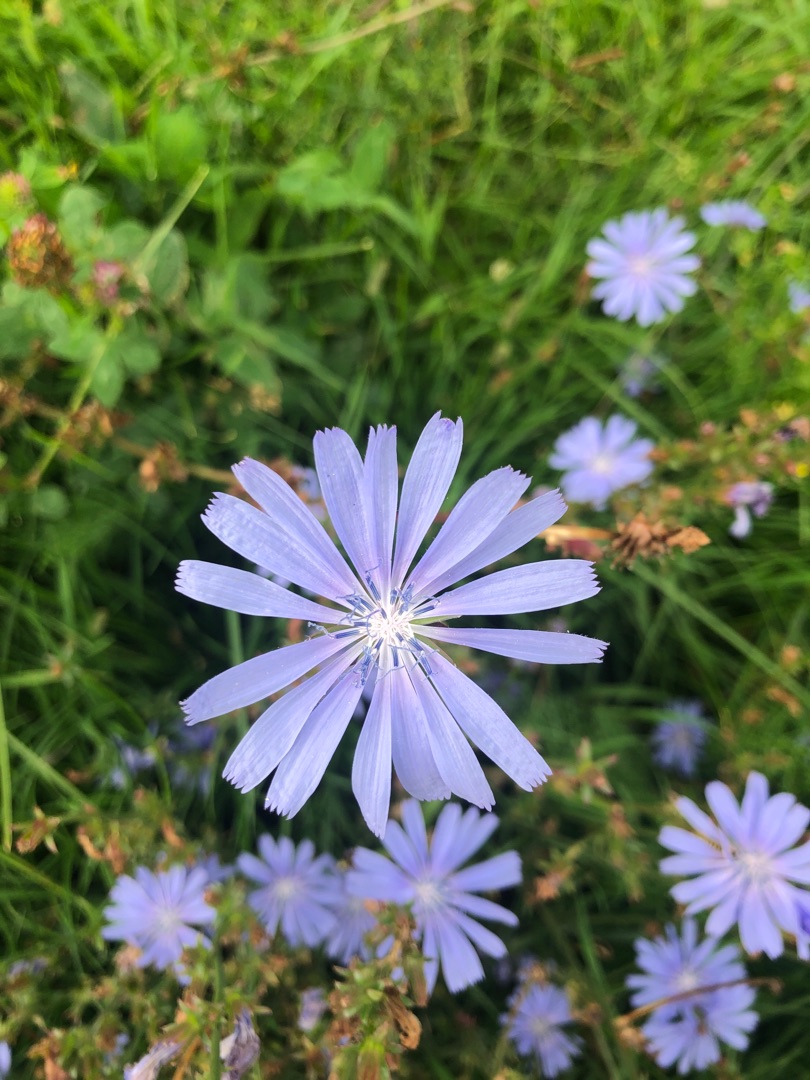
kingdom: Plantae
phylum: Tracheophyta
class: Magnoliopsida
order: Asterales
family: Asteraceae
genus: Cichorium
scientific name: Cichorium intybus
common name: Cikorie
